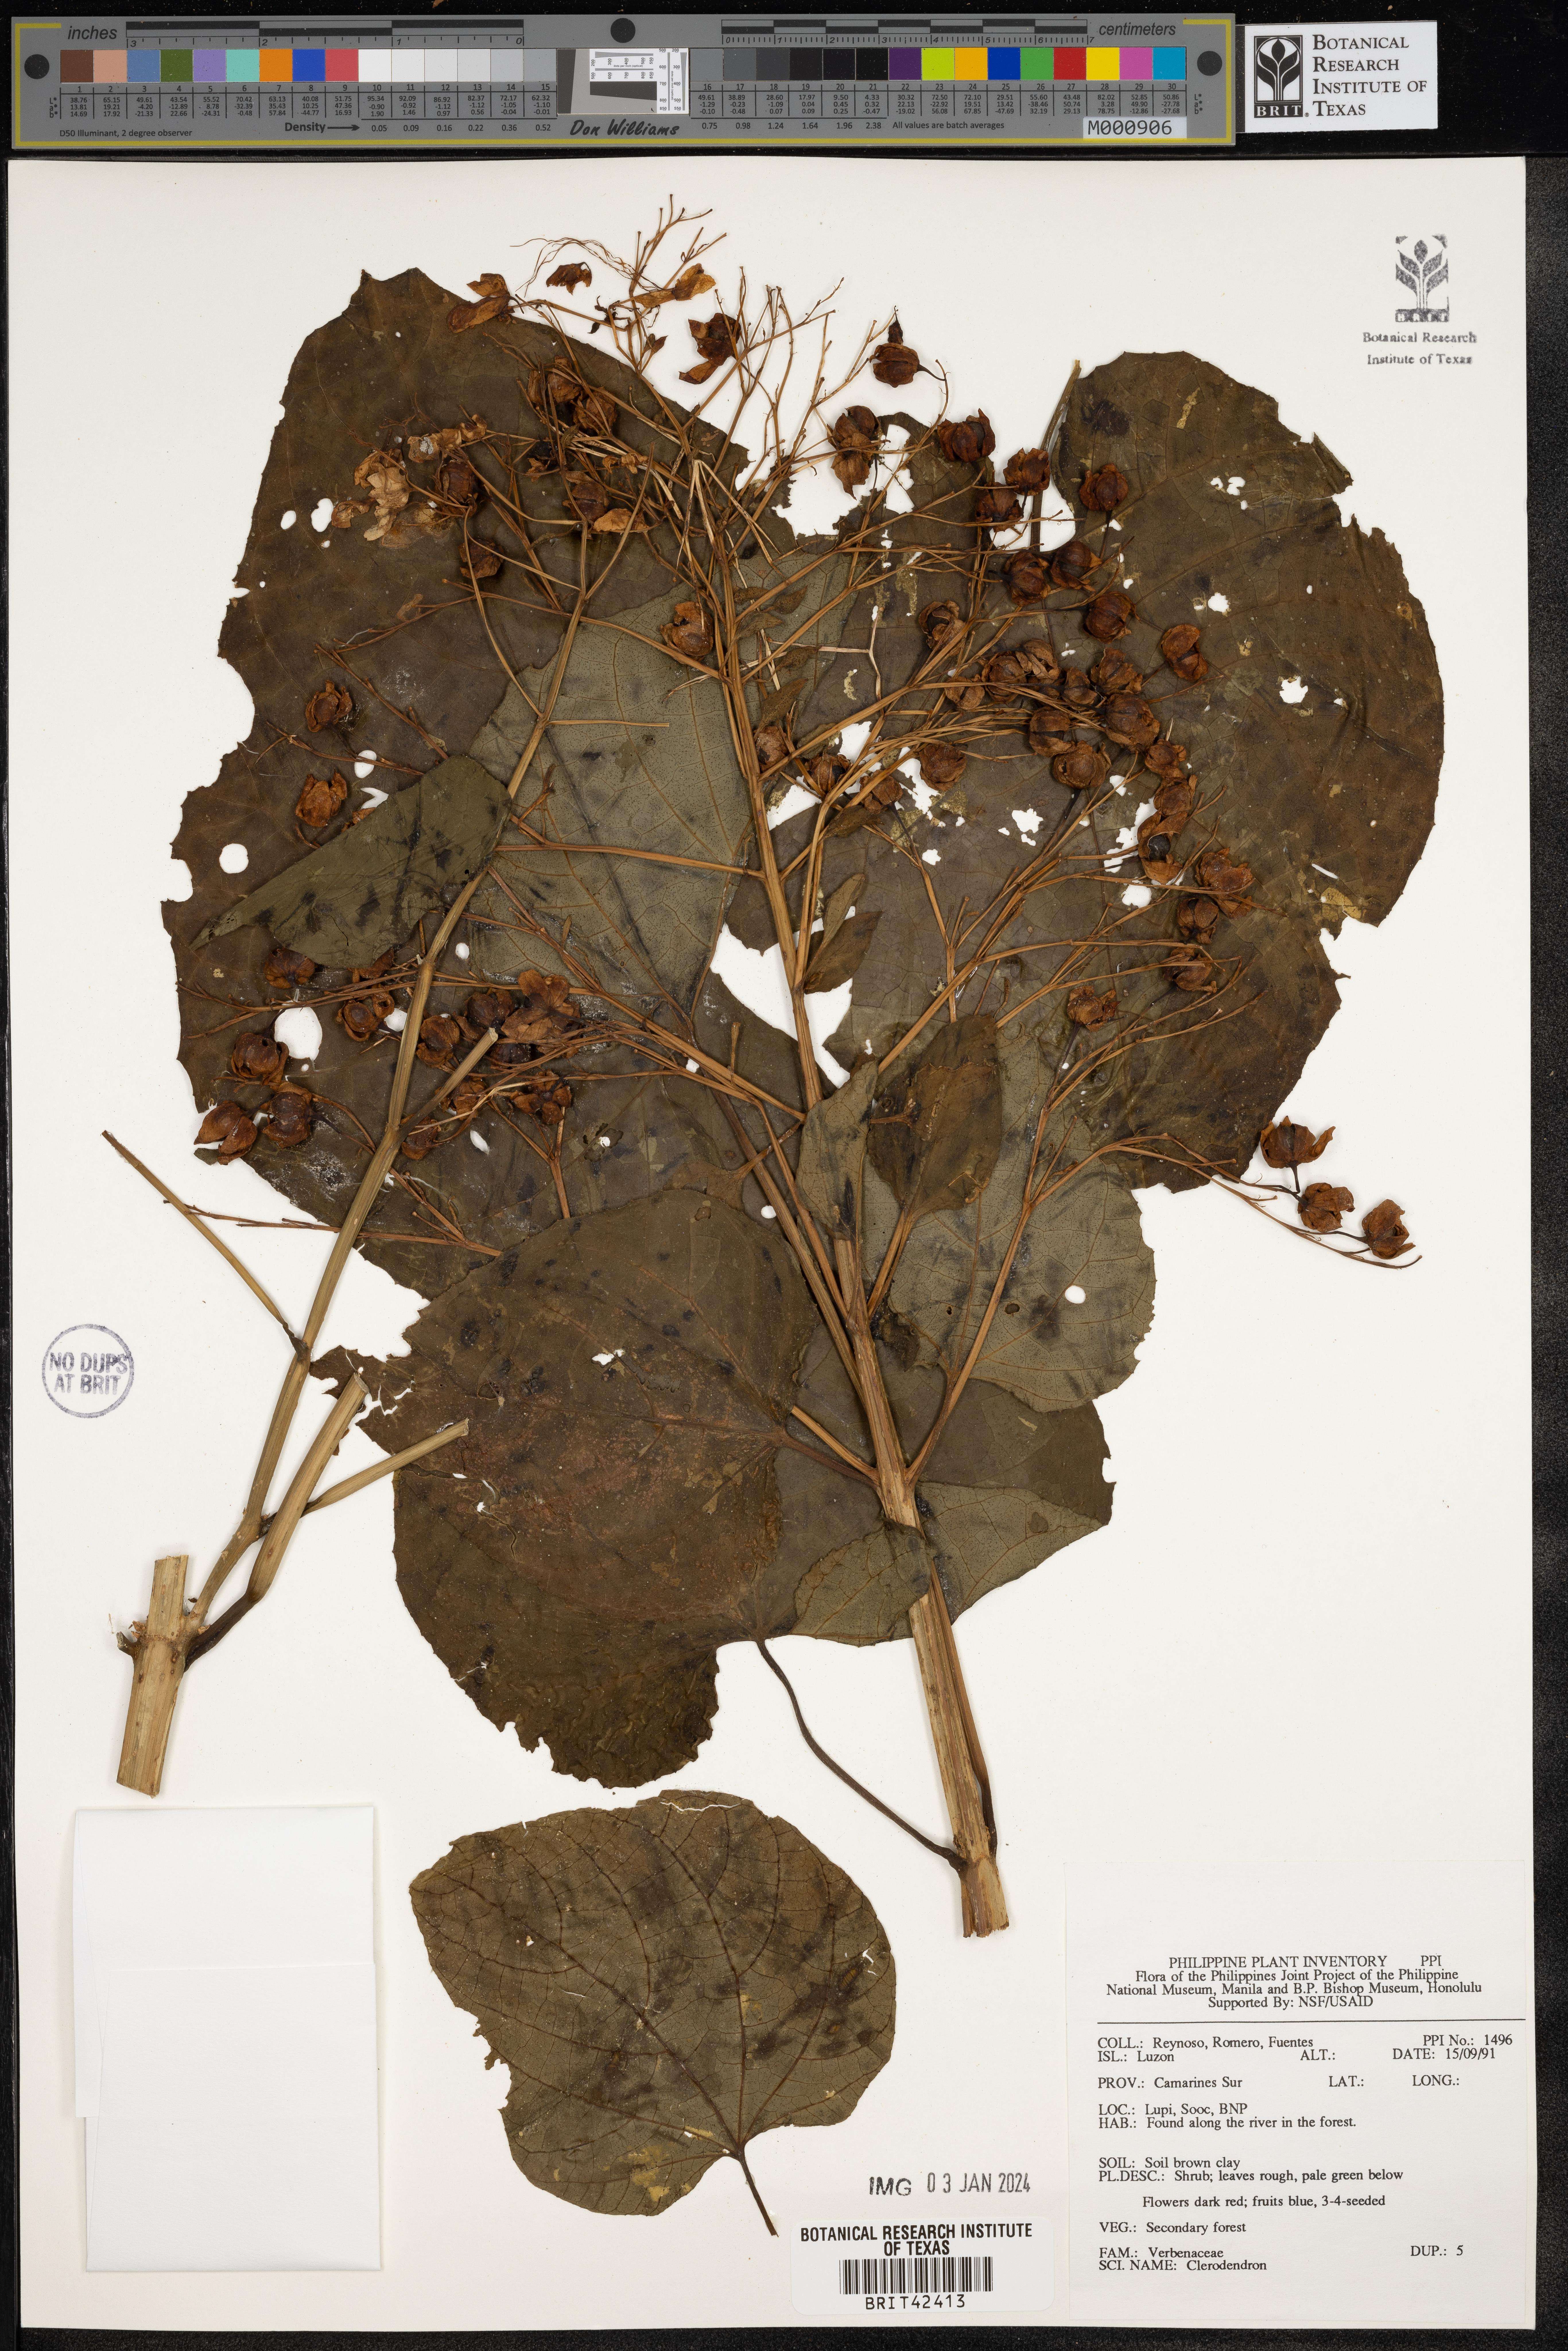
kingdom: Plantae
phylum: Tracheophyta
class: Magnoliopsida
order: Lamiales
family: Lamiaceae
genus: Clerodendrum
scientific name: Clerodendrum
